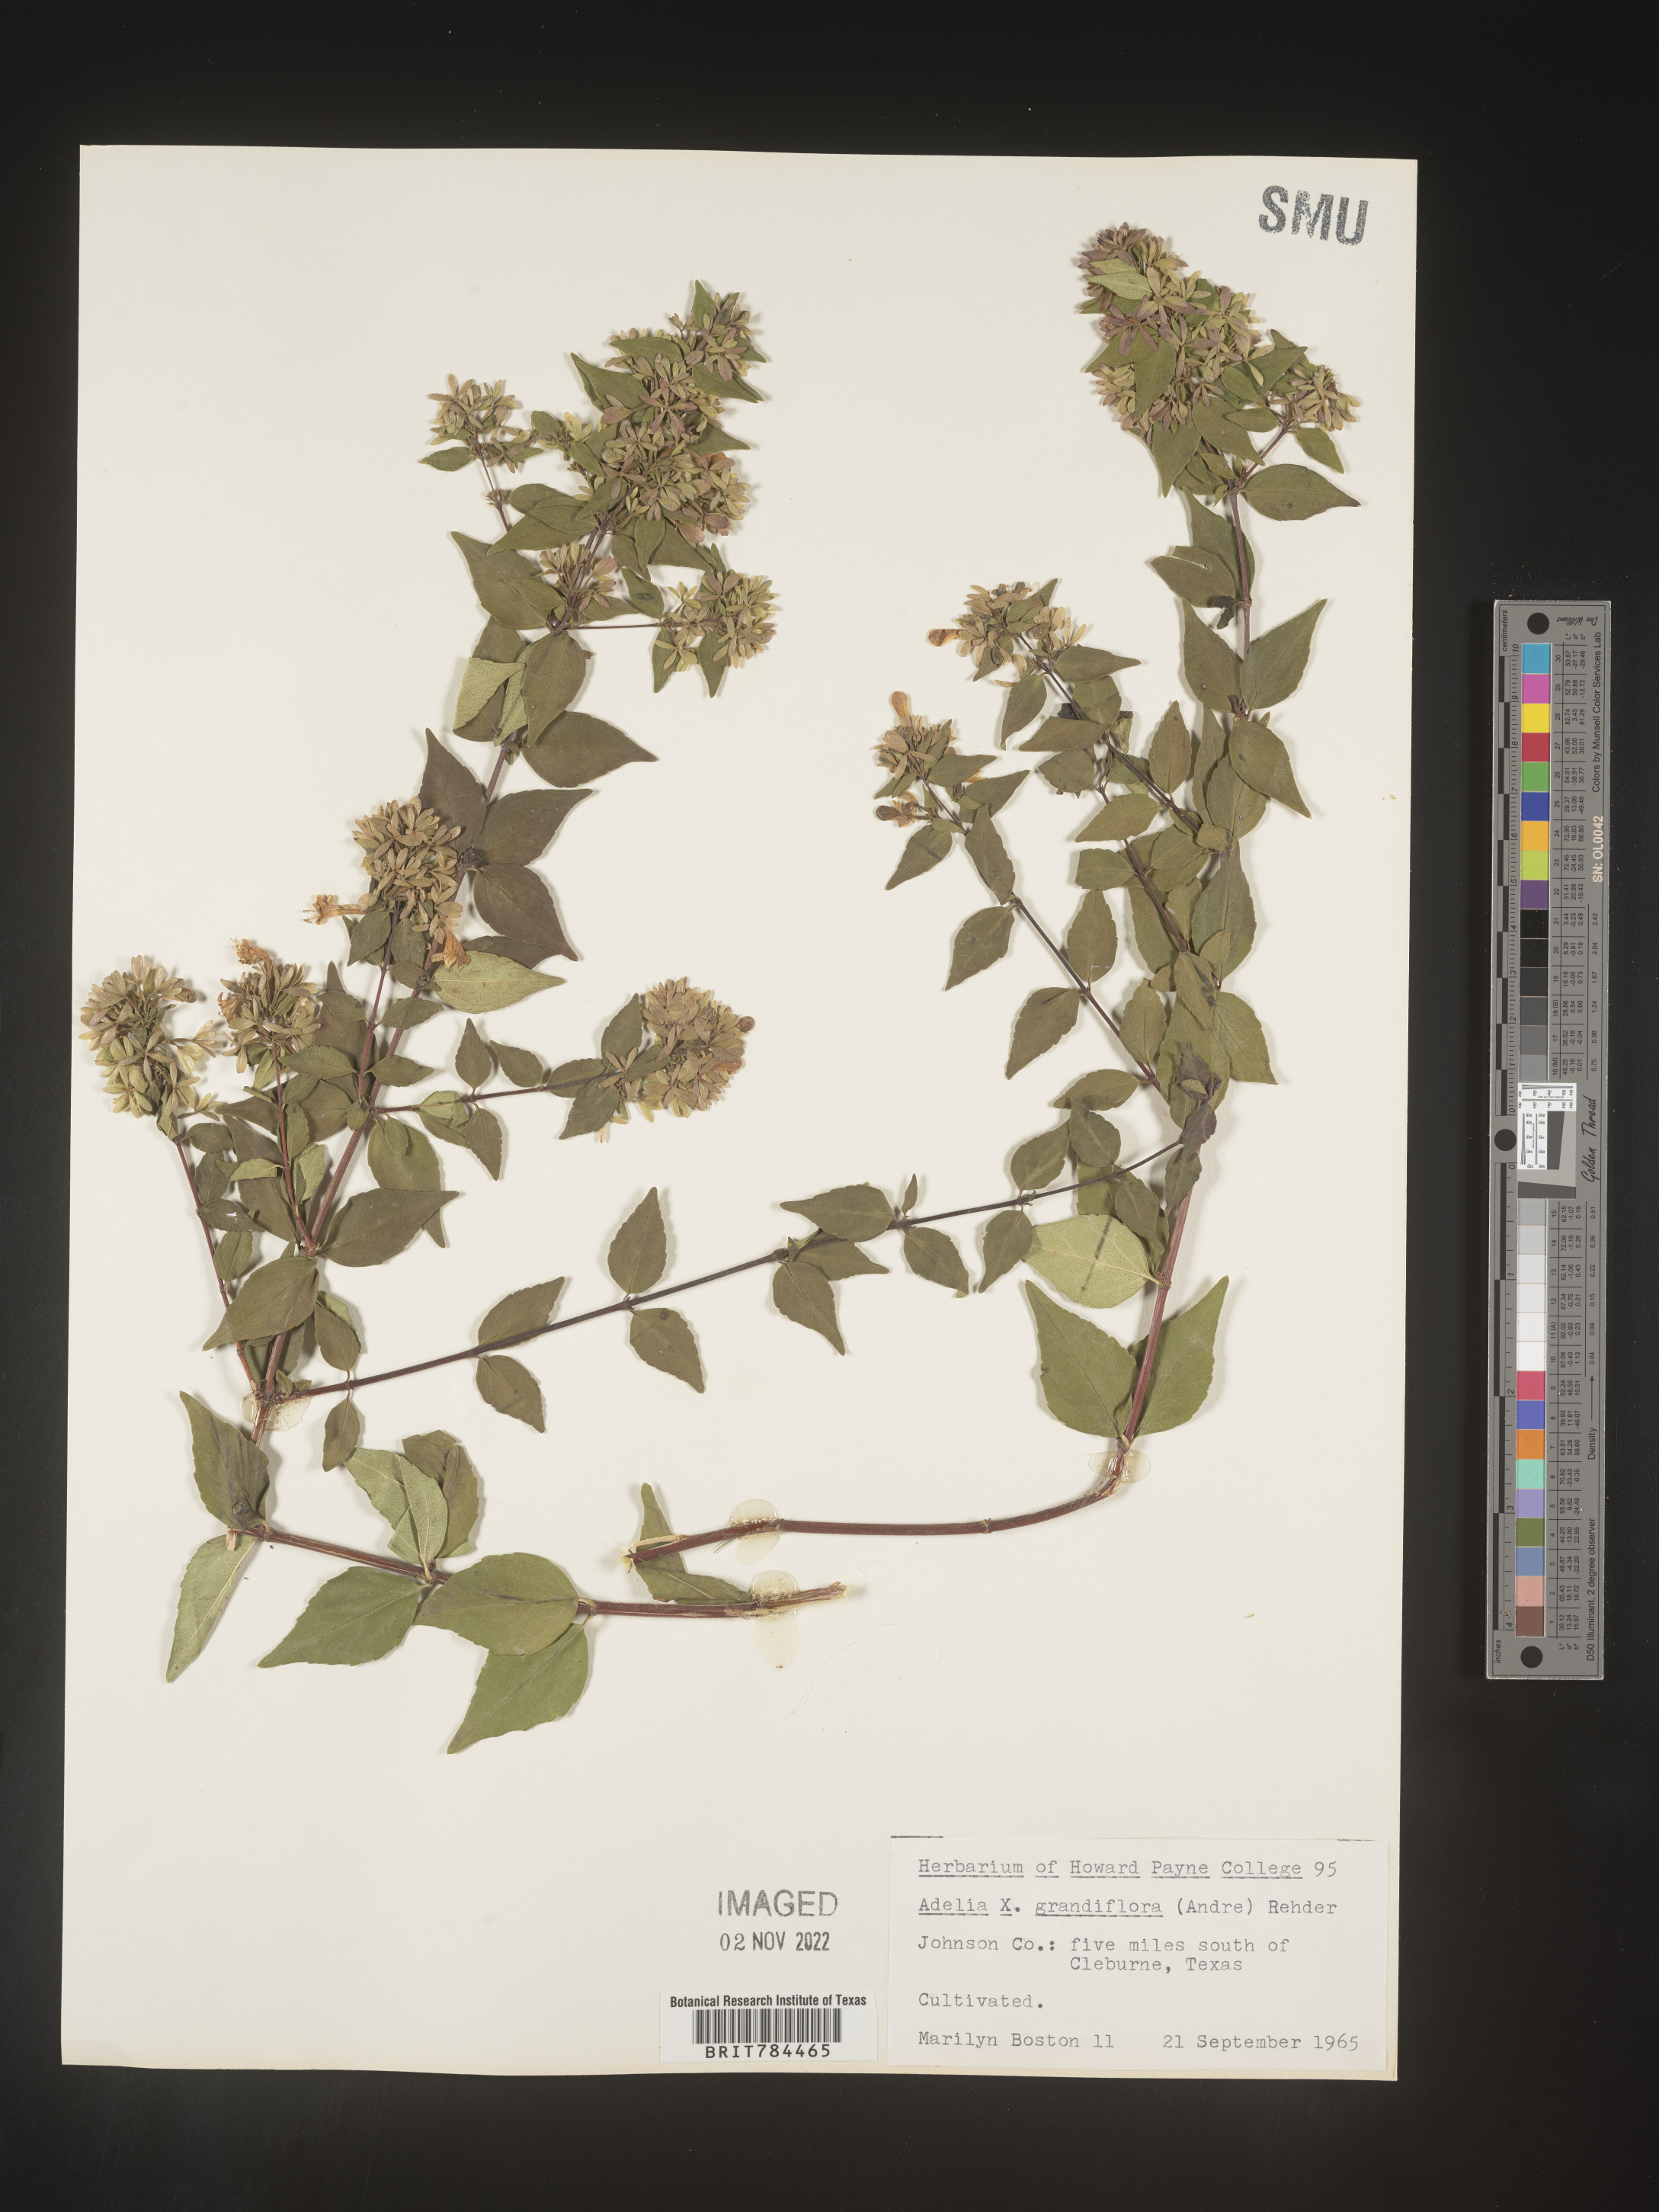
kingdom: Plantae
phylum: Tracheophyta
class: Magnoliopsida
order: Dipsacales
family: Caprifoliaceae
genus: Abelia
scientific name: Abelia
